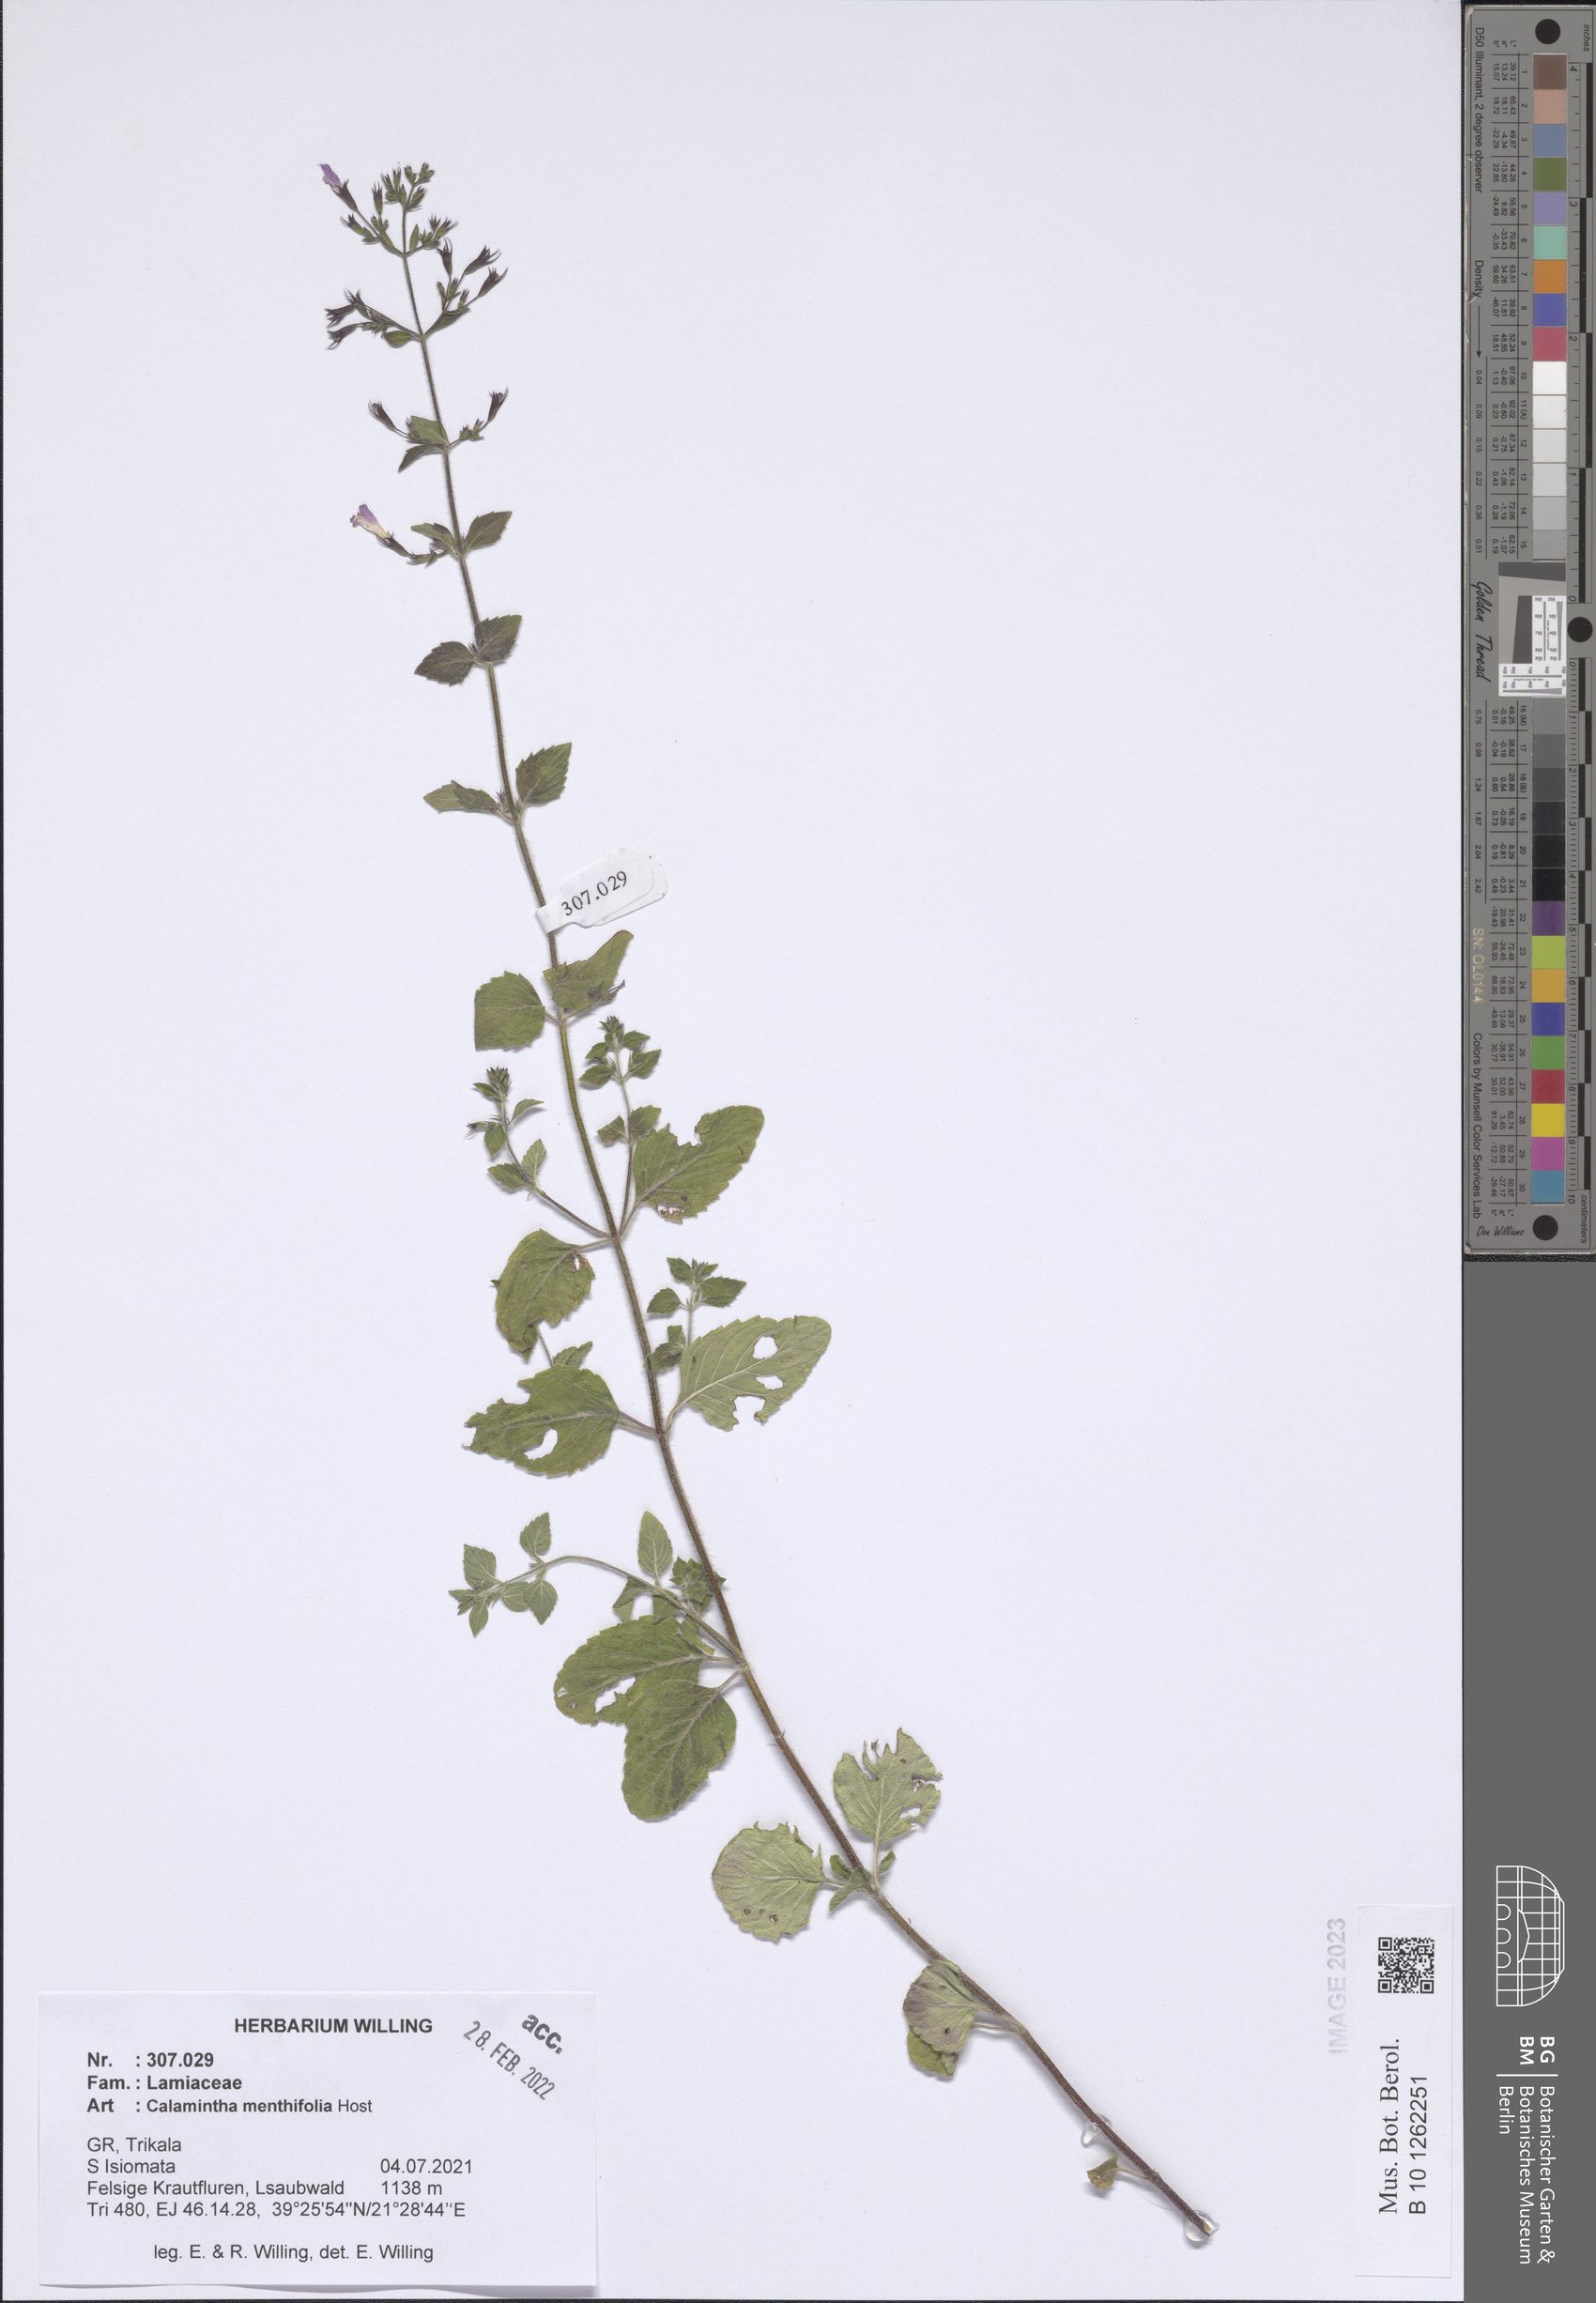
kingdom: Plantae
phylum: Tracheophyta
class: Magnoliopsida
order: Lamiales
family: Lamiaceae
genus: Clinopodium
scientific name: Clinopodium menthifolium
